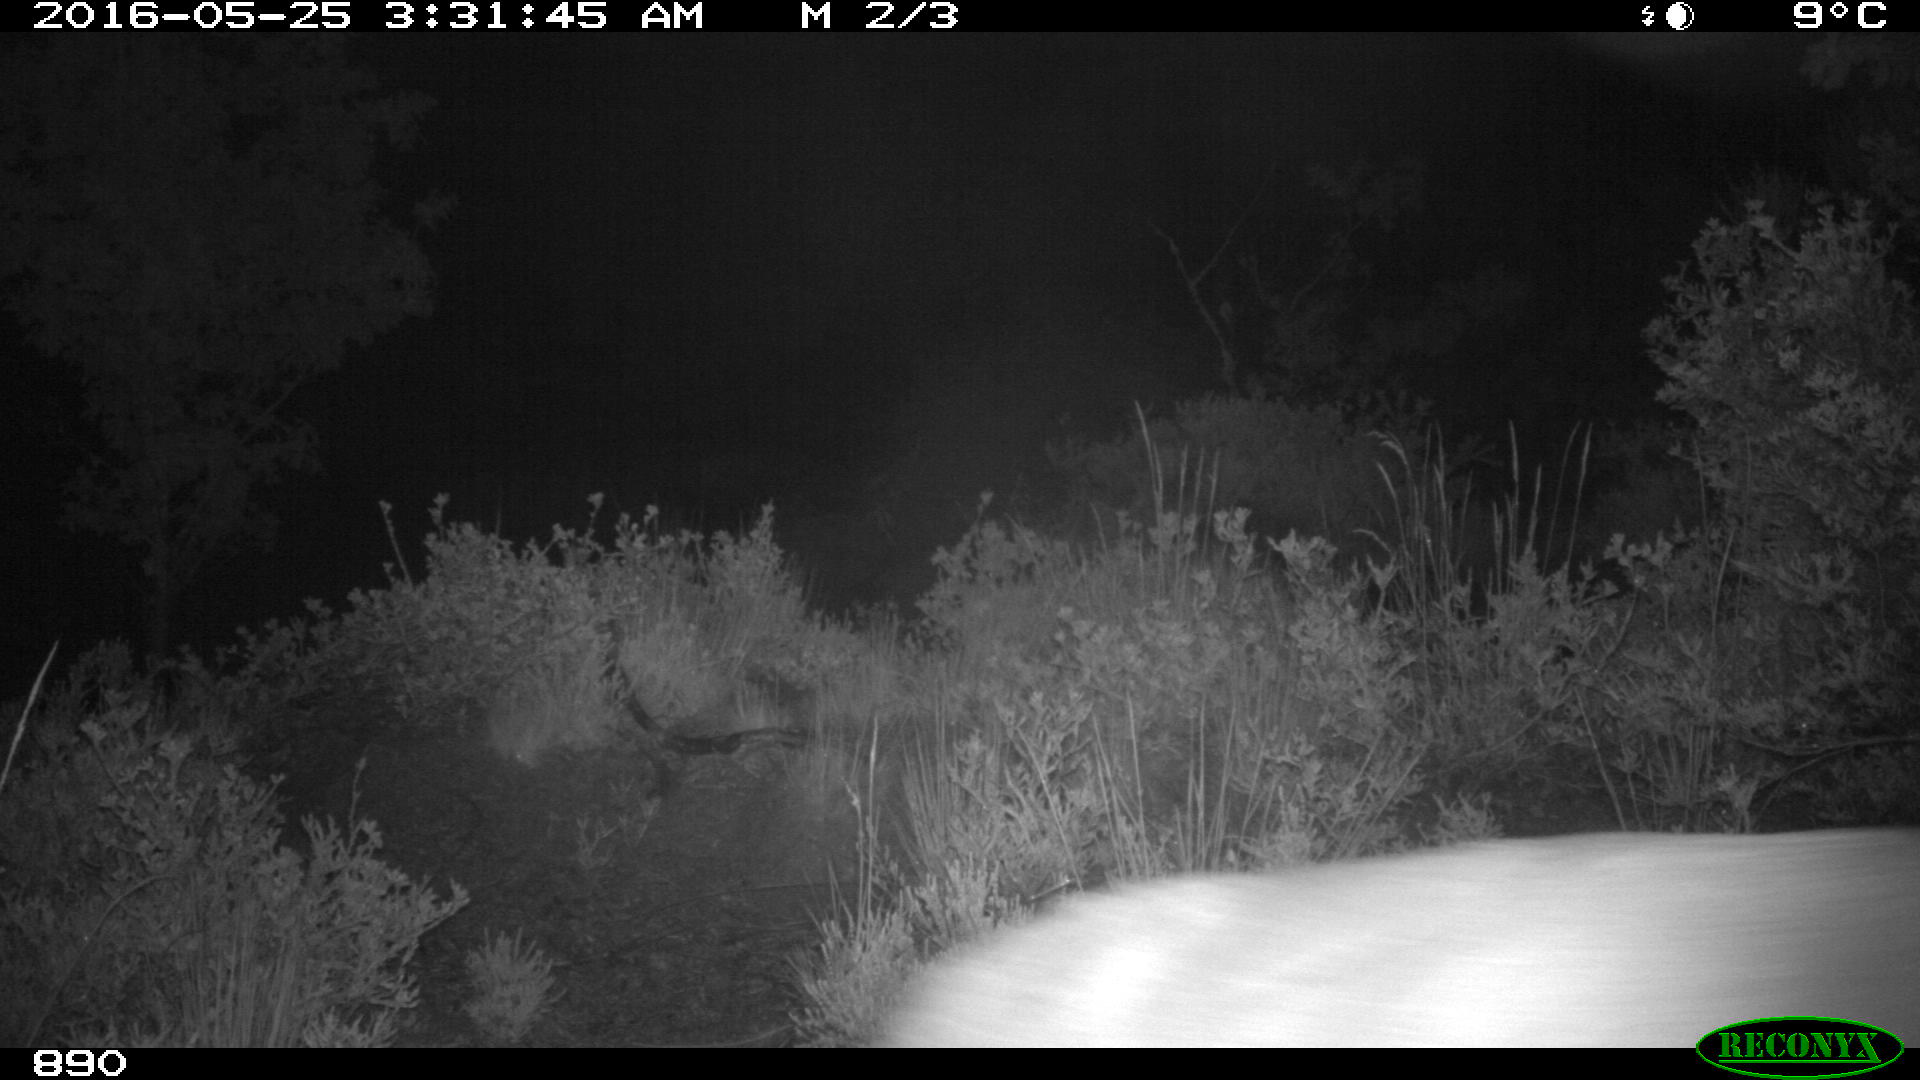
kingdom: Animalia
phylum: Chordata
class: Mammalia
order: Artiodactyla
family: Cervidae
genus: Capreolus
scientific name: Capreolus capreolus
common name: Western roe deer
